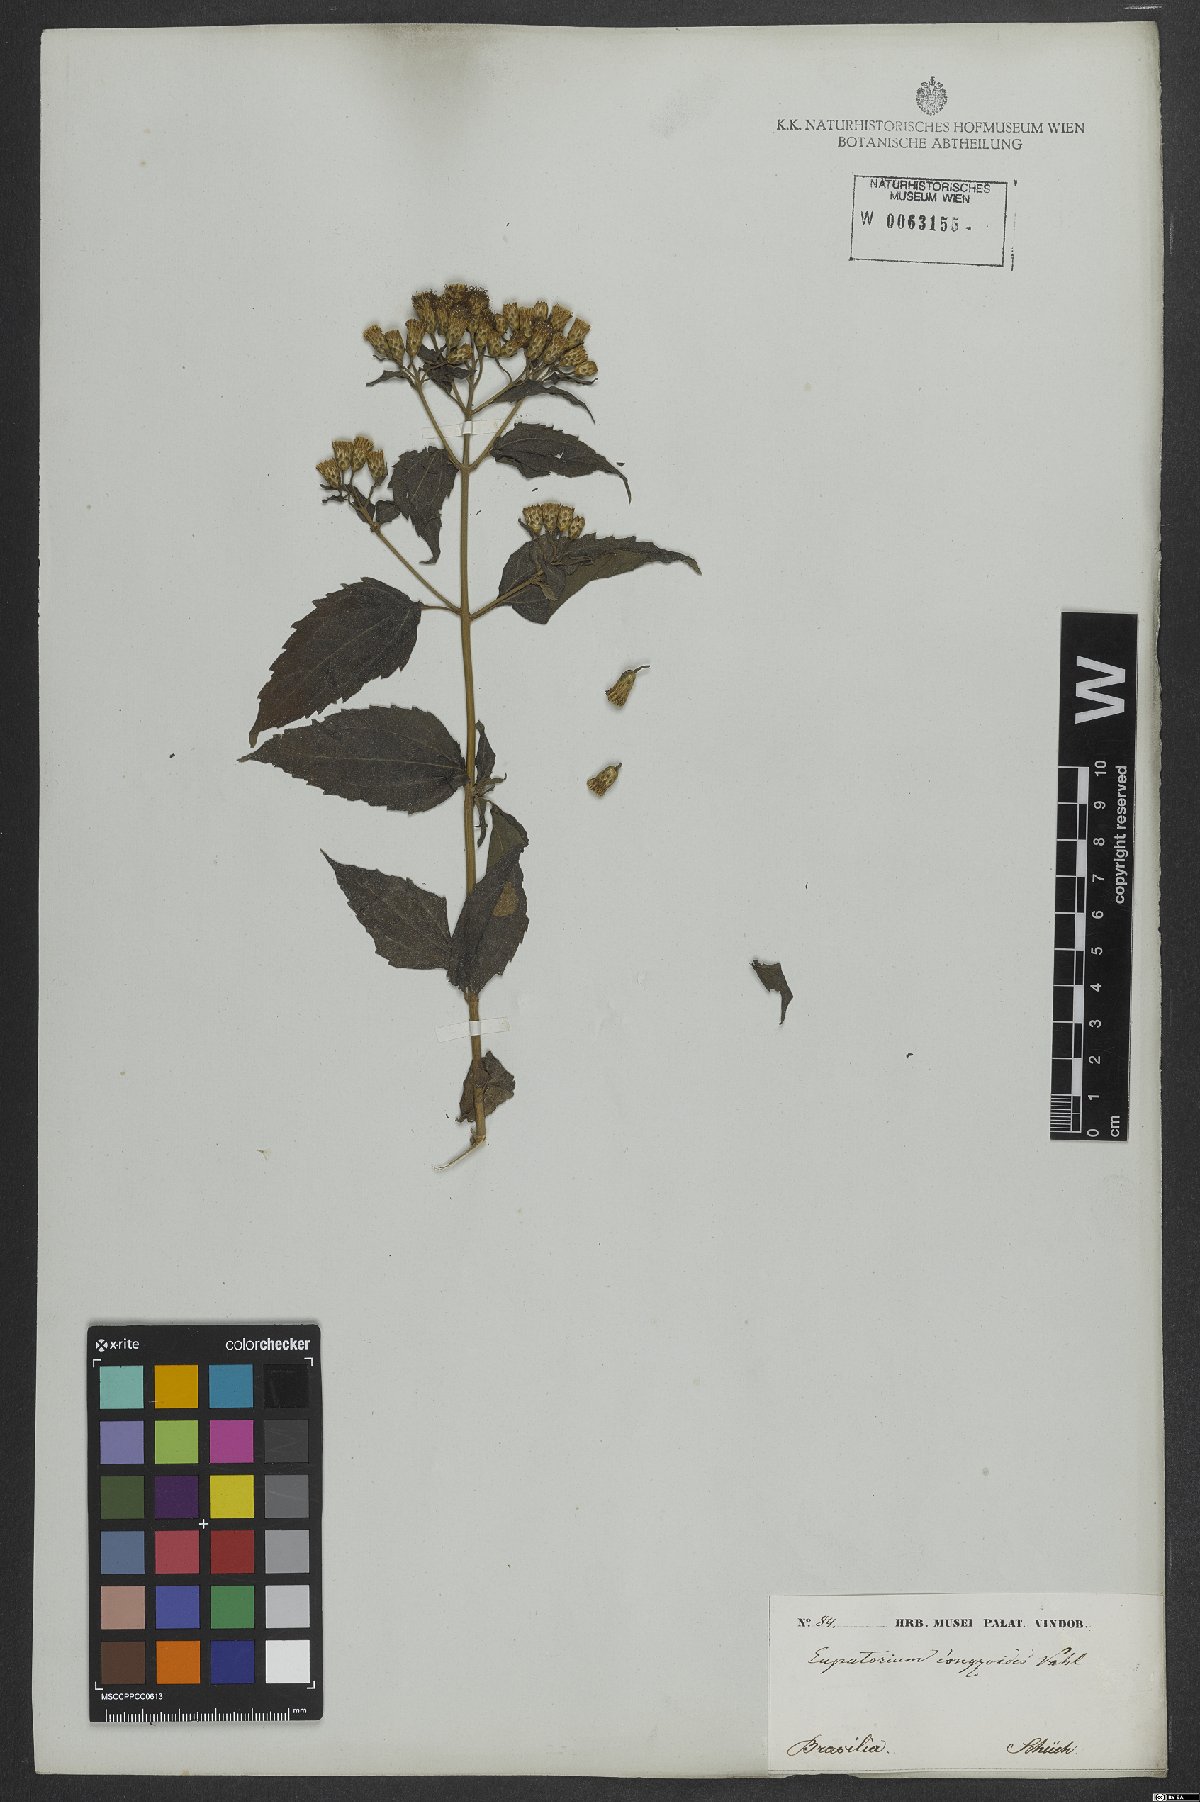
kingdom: Plantae
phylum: Tracheophyta
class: Magnoliopsida
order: Asterales
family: Asteraceae
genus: Chromolaena
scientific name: Chromolaena odorata
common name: Siamweed
